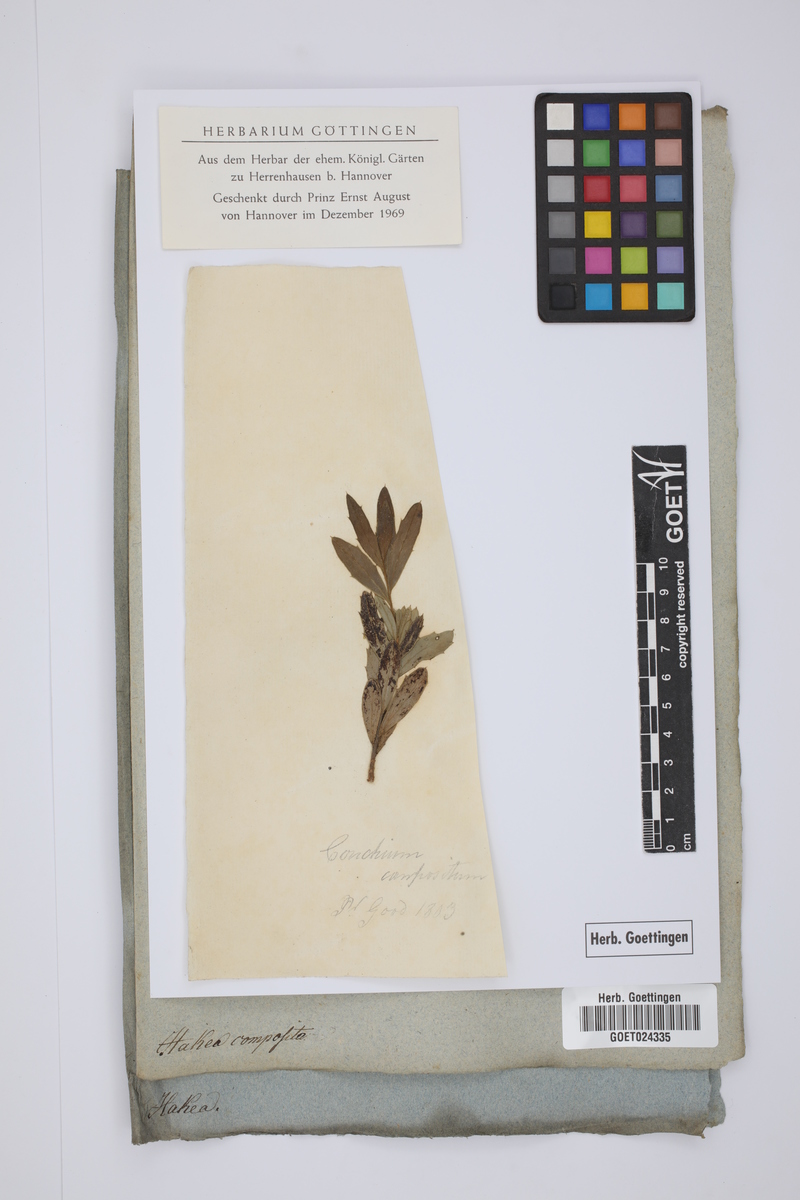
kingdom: Plantae
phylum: Tracheophyta
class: Magnoliopsida
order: Proteales
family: Proteaceae
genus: Hakea
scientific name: Hakea
